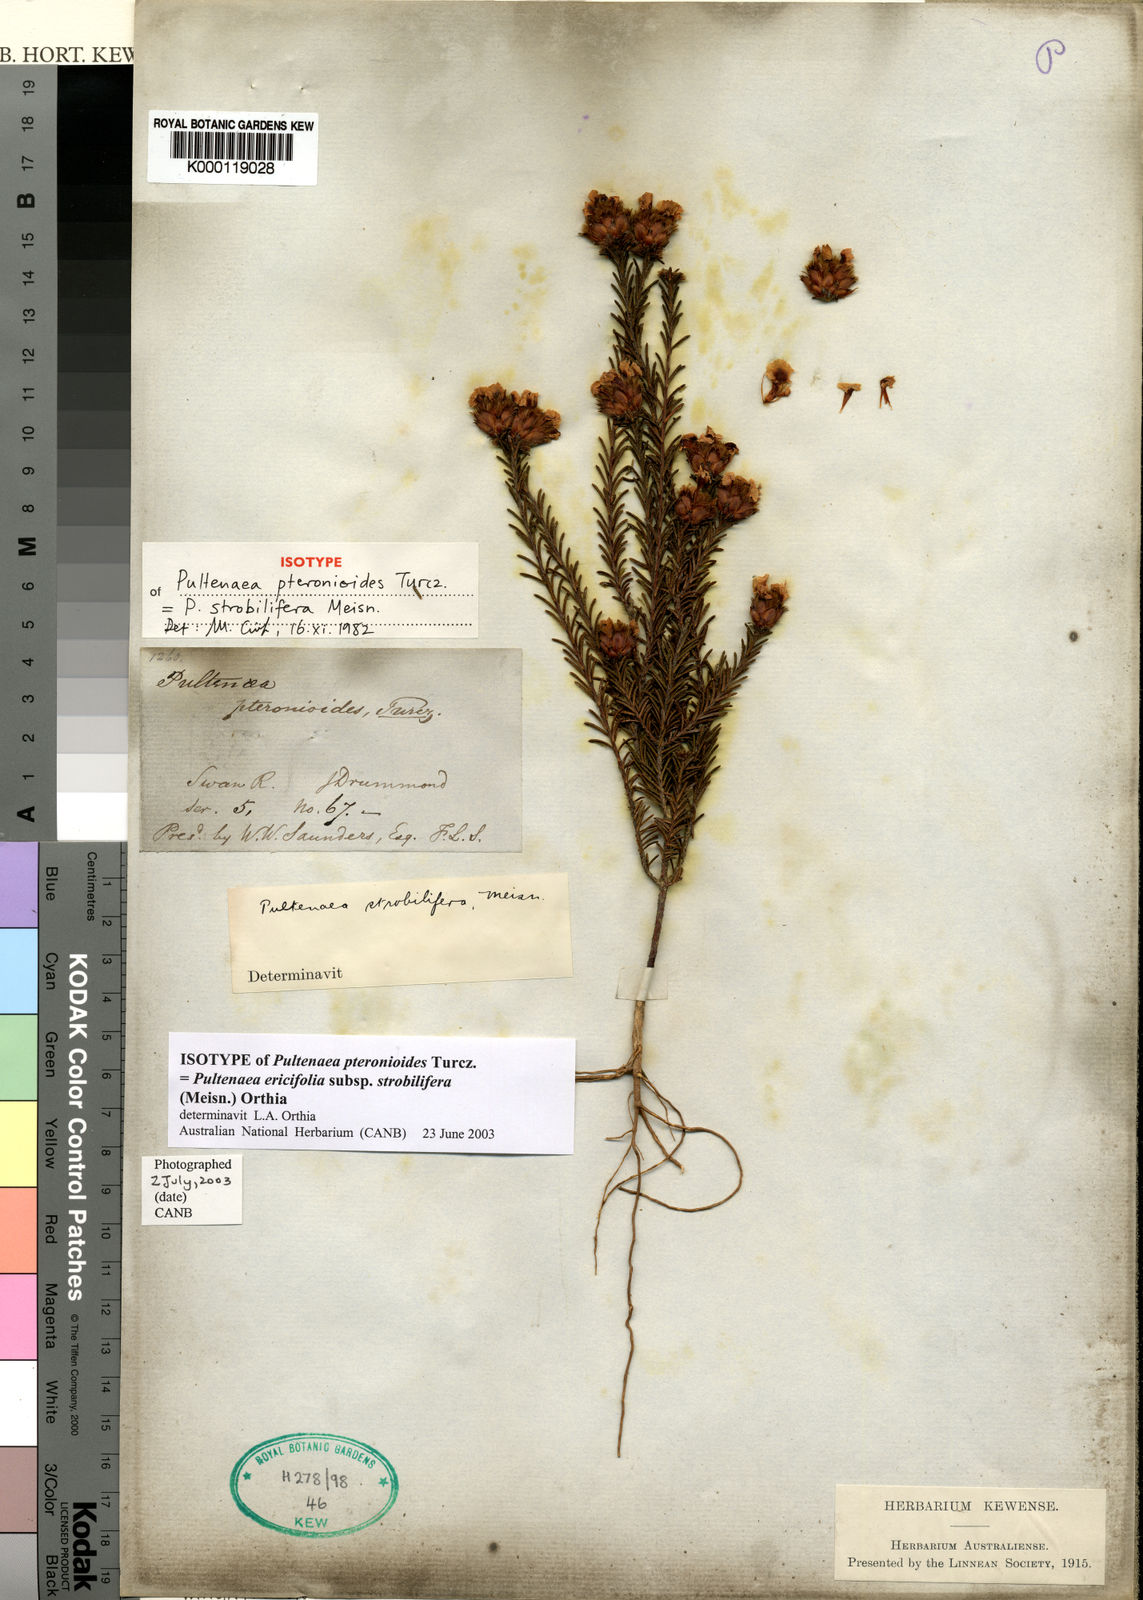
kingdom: Plantae
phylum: Tracheophyta
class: Magnoliopsida
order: Fabales
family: Fabaceae
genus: Pultenaea
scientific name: Pultenaea
